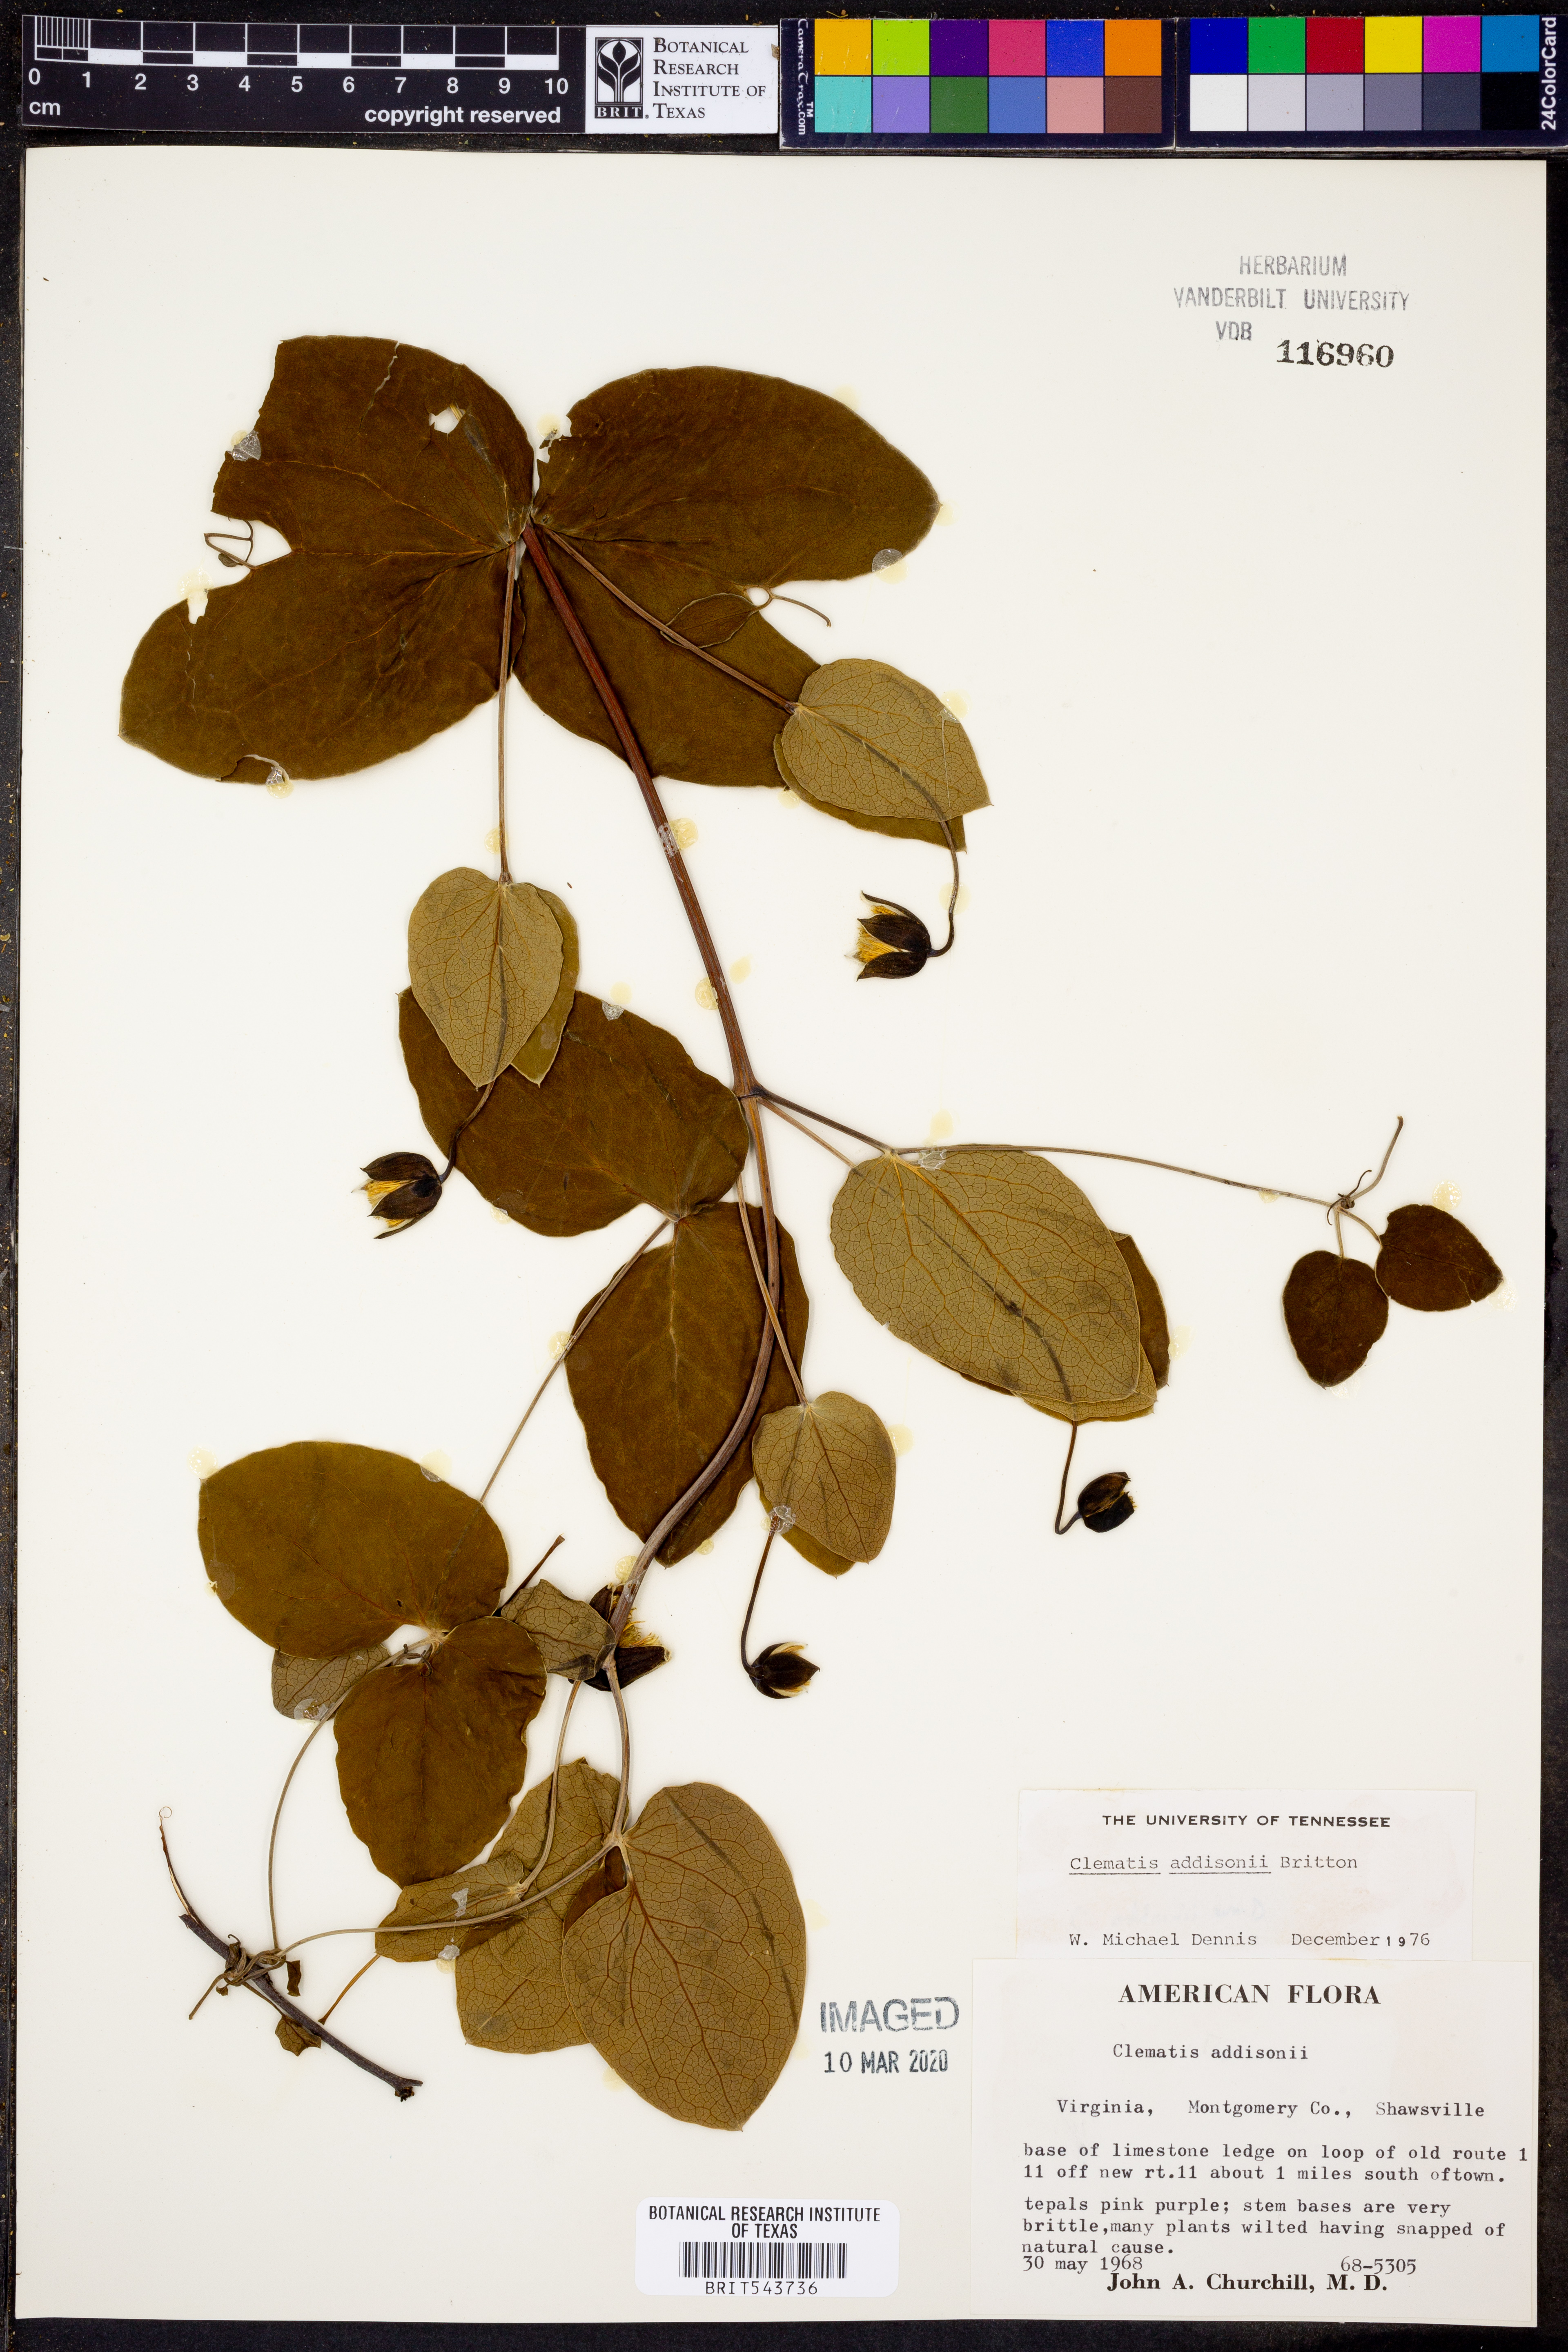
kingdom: Plantae
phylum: Tracheophyta
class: Magnoliopsida
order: Ranunculales
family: Ranunculaceae
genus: Clematis
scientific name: Clematis addisonii
